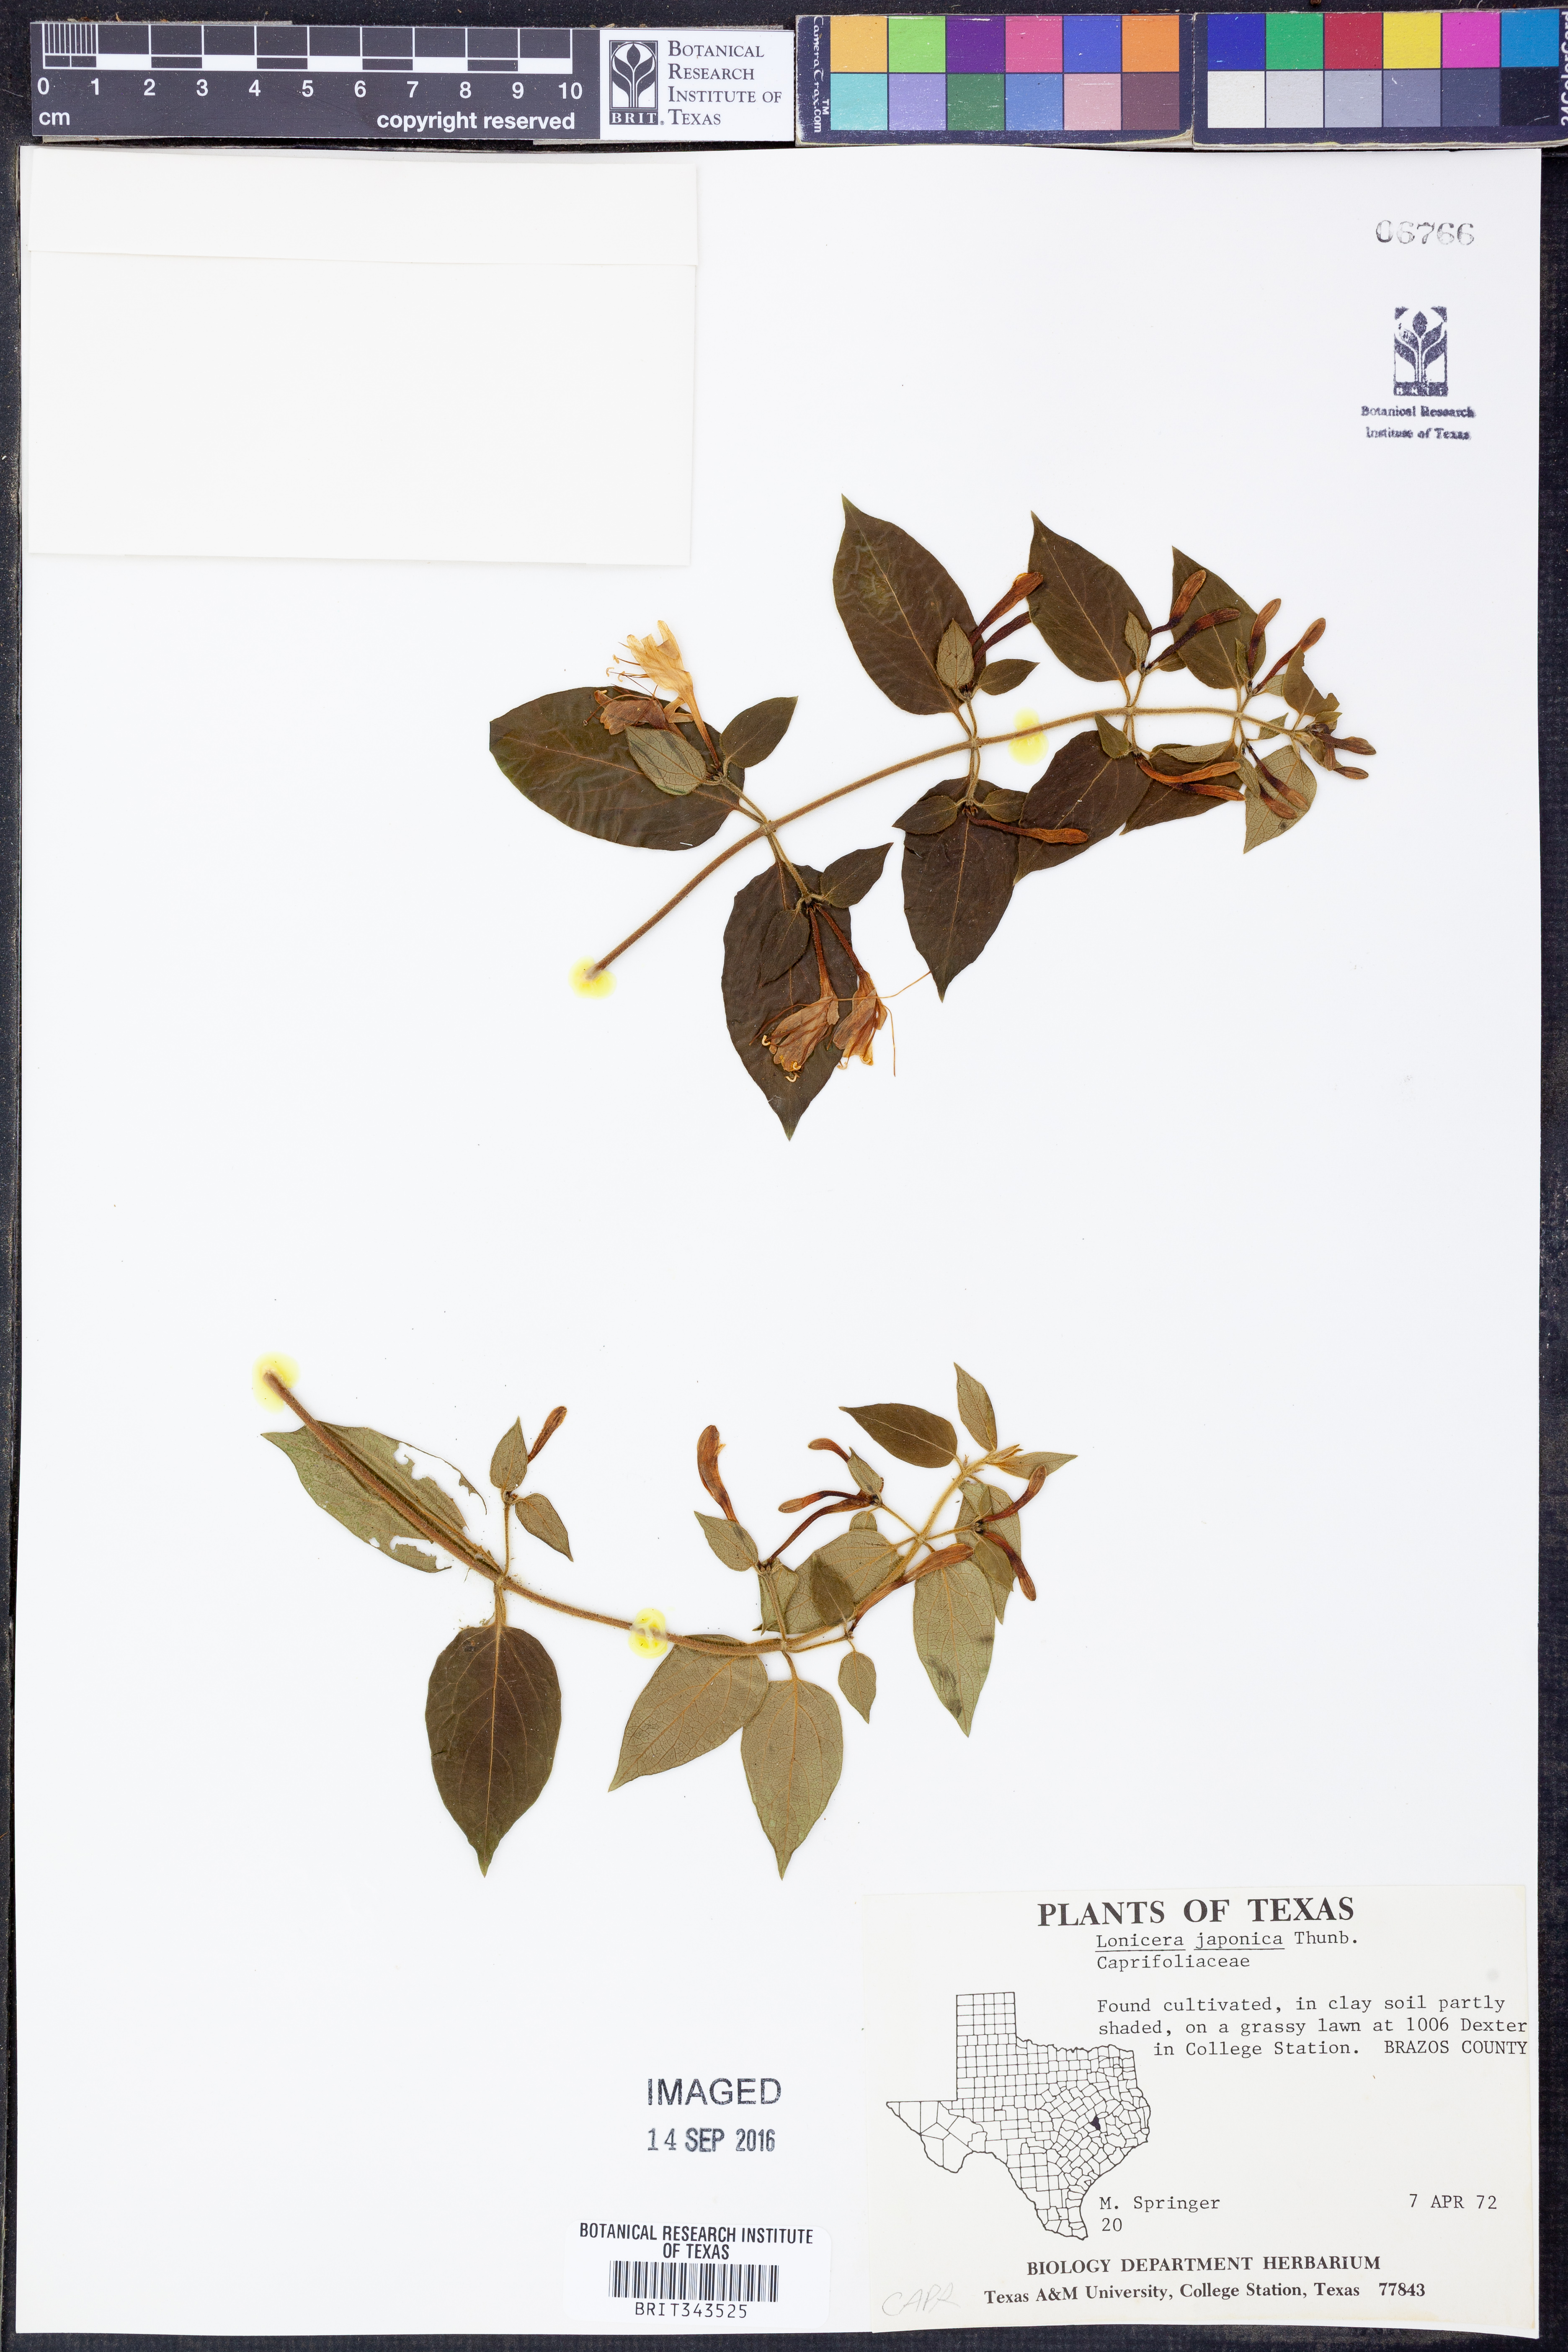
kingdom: Plantae
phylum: Tracheophyta
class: Magnoliopsida
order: Dipsacales
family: Caprifoliaceae
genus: Lonicera
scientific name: Lonicera japonica
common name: Japanese honeysuckle
